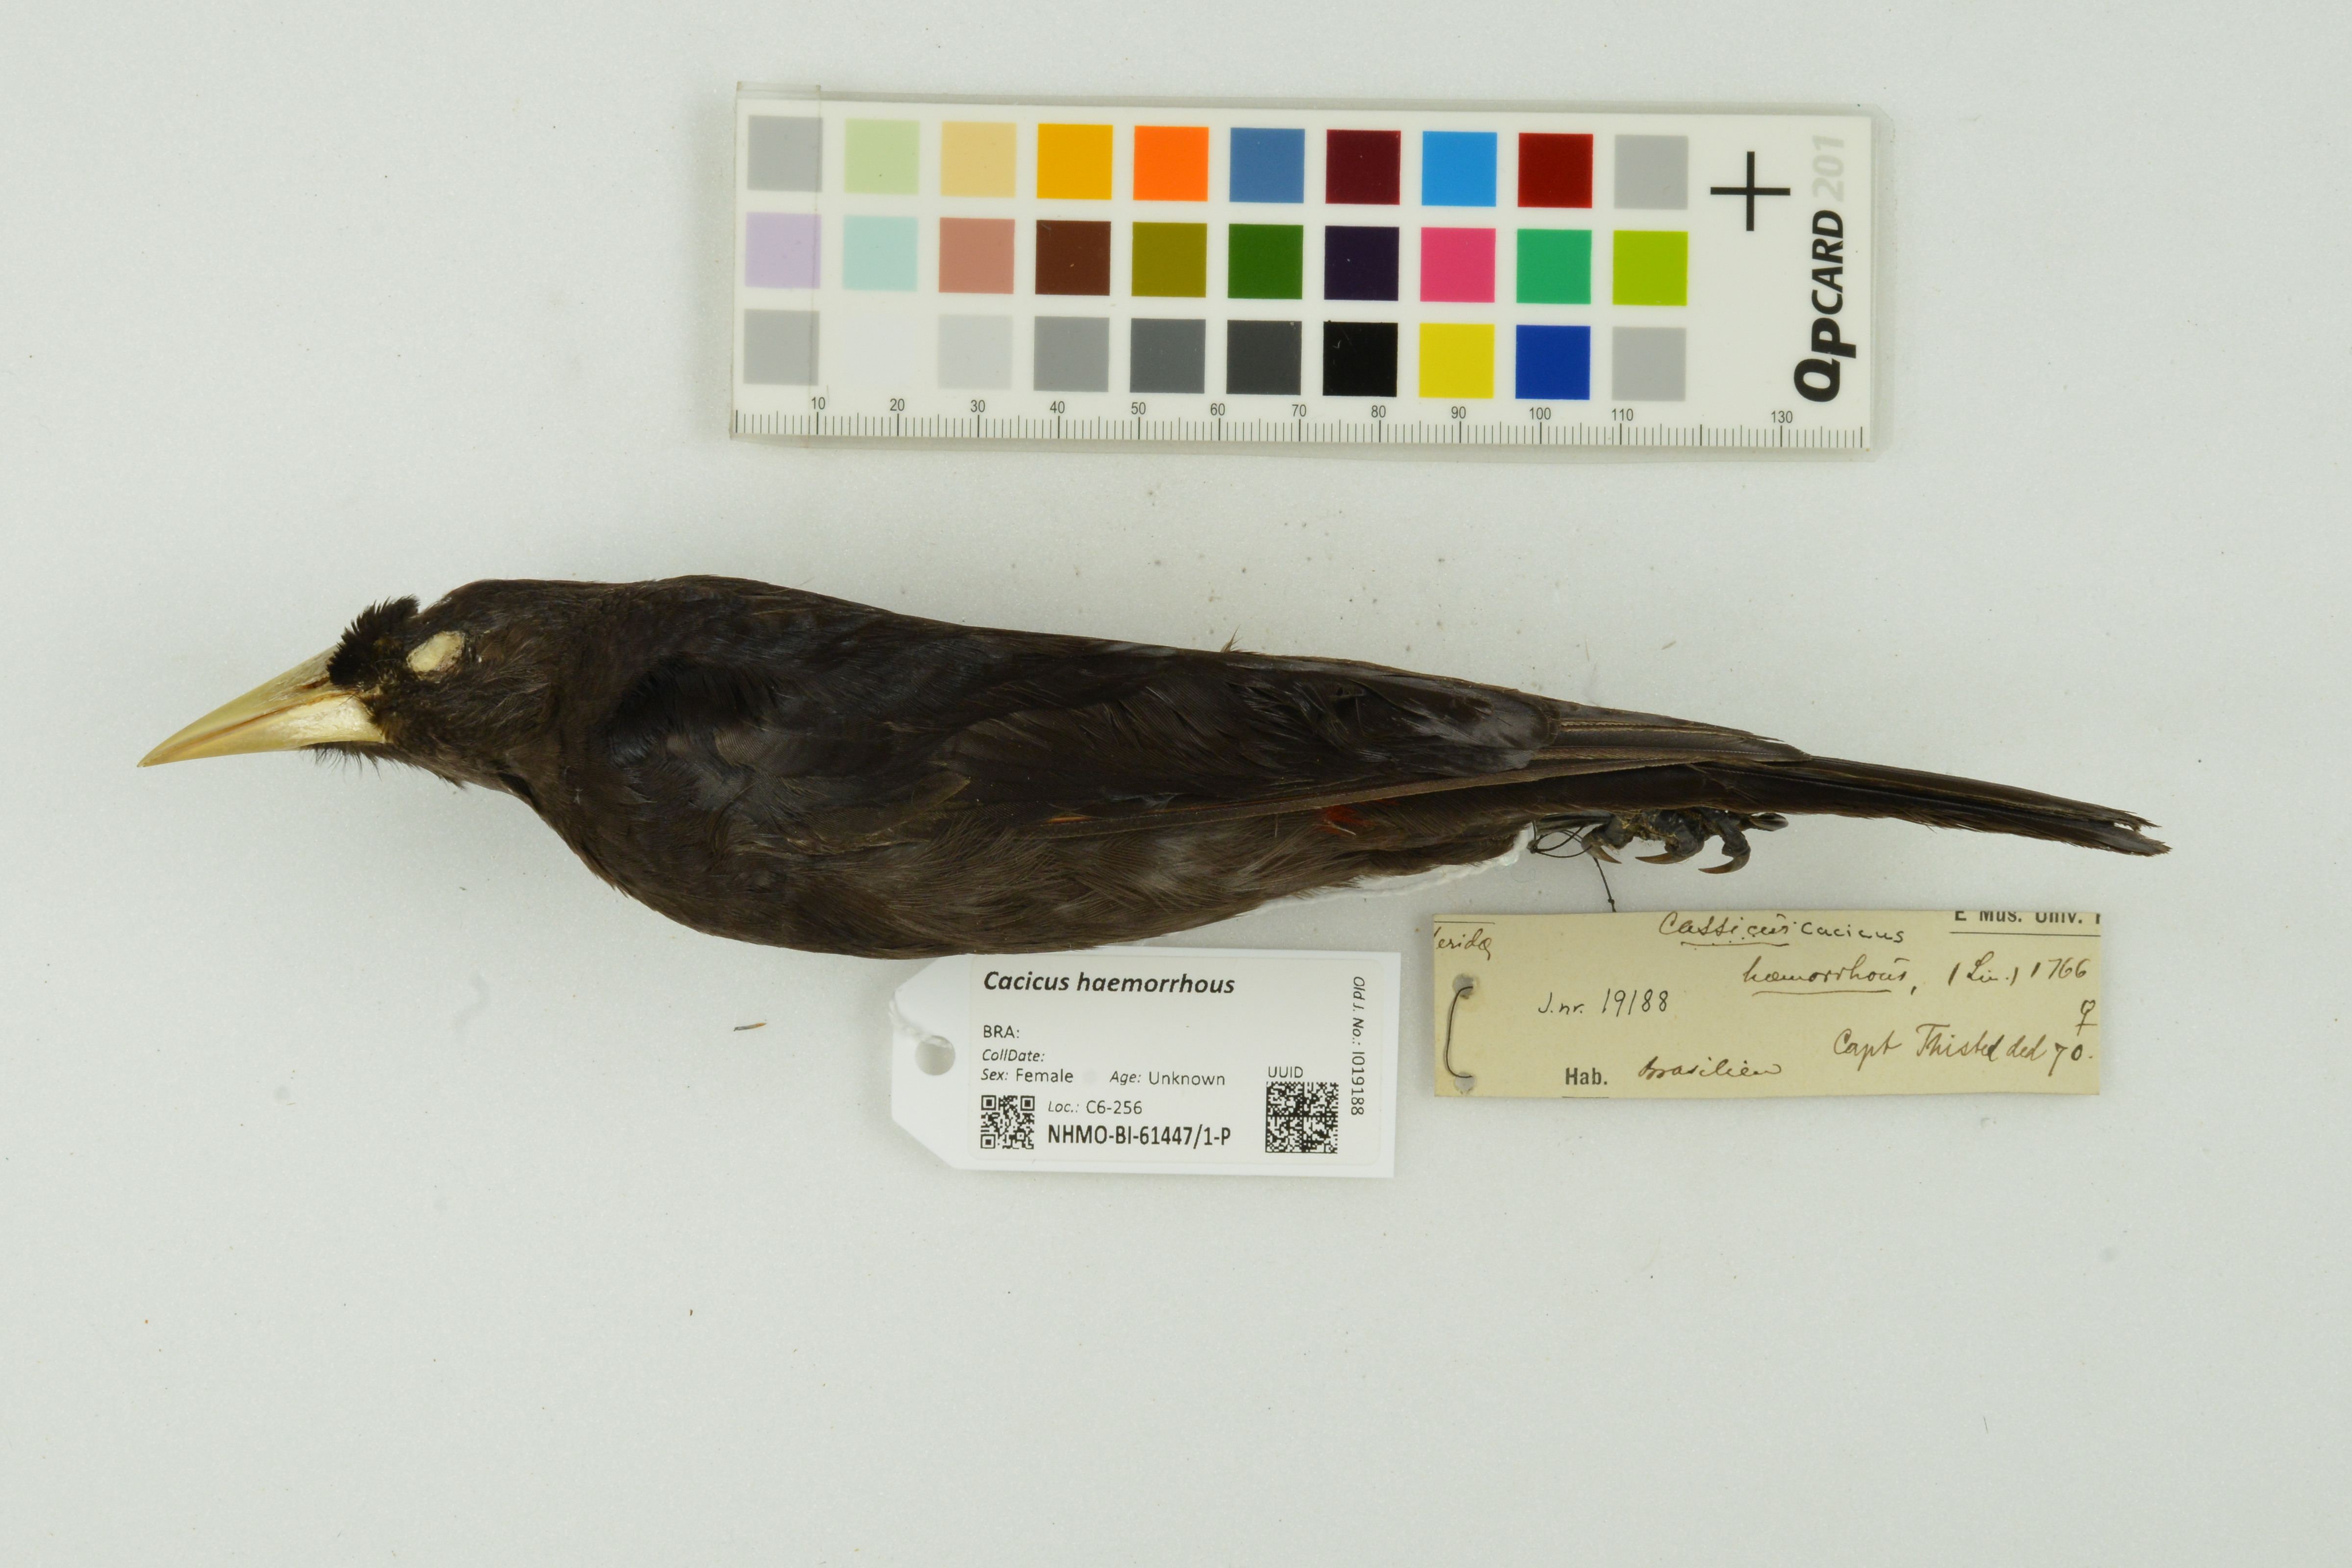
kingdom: Animalia
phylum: Chordata
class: Aves
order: Passeriformes
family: Icteridae
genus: Cacicus
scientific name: Cacicus haemorrhous
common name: Red-rumped cacique
